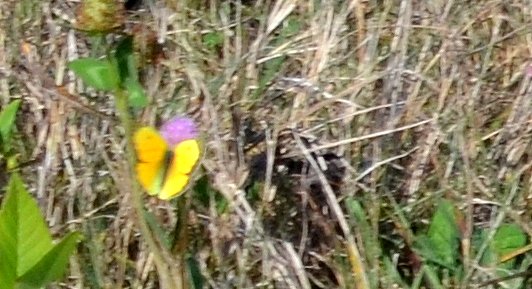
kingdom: Animalia
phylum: Arthropoda
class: Insecta
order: Lepidoptera
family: Pieridae
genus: Colias
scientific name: Colias eurytheme
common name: Orange Sulphur
